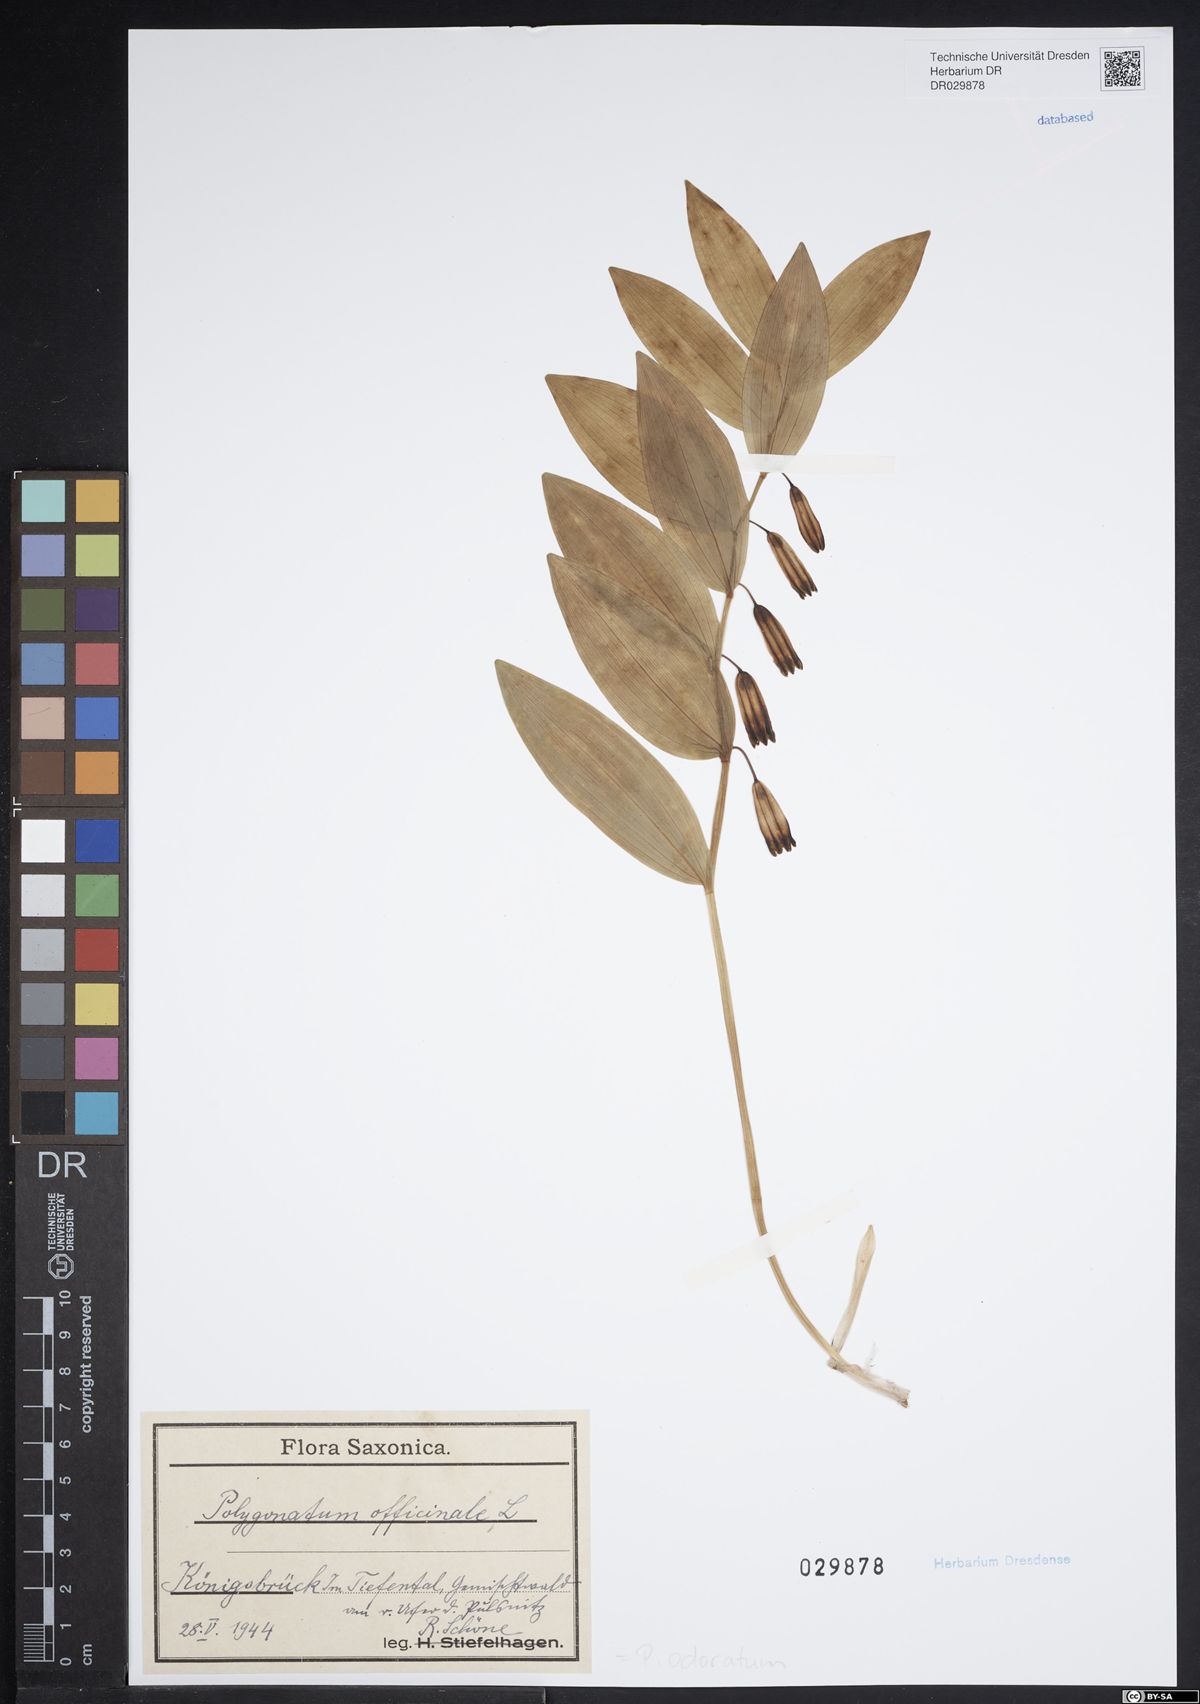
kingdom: Plantae
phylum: Tracheophyta
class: Liliopsida
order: Asparagales
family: Asparagaceae
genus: Polygonatum
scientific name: Polygonatum odoratum
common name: Angular solomon's-seal
